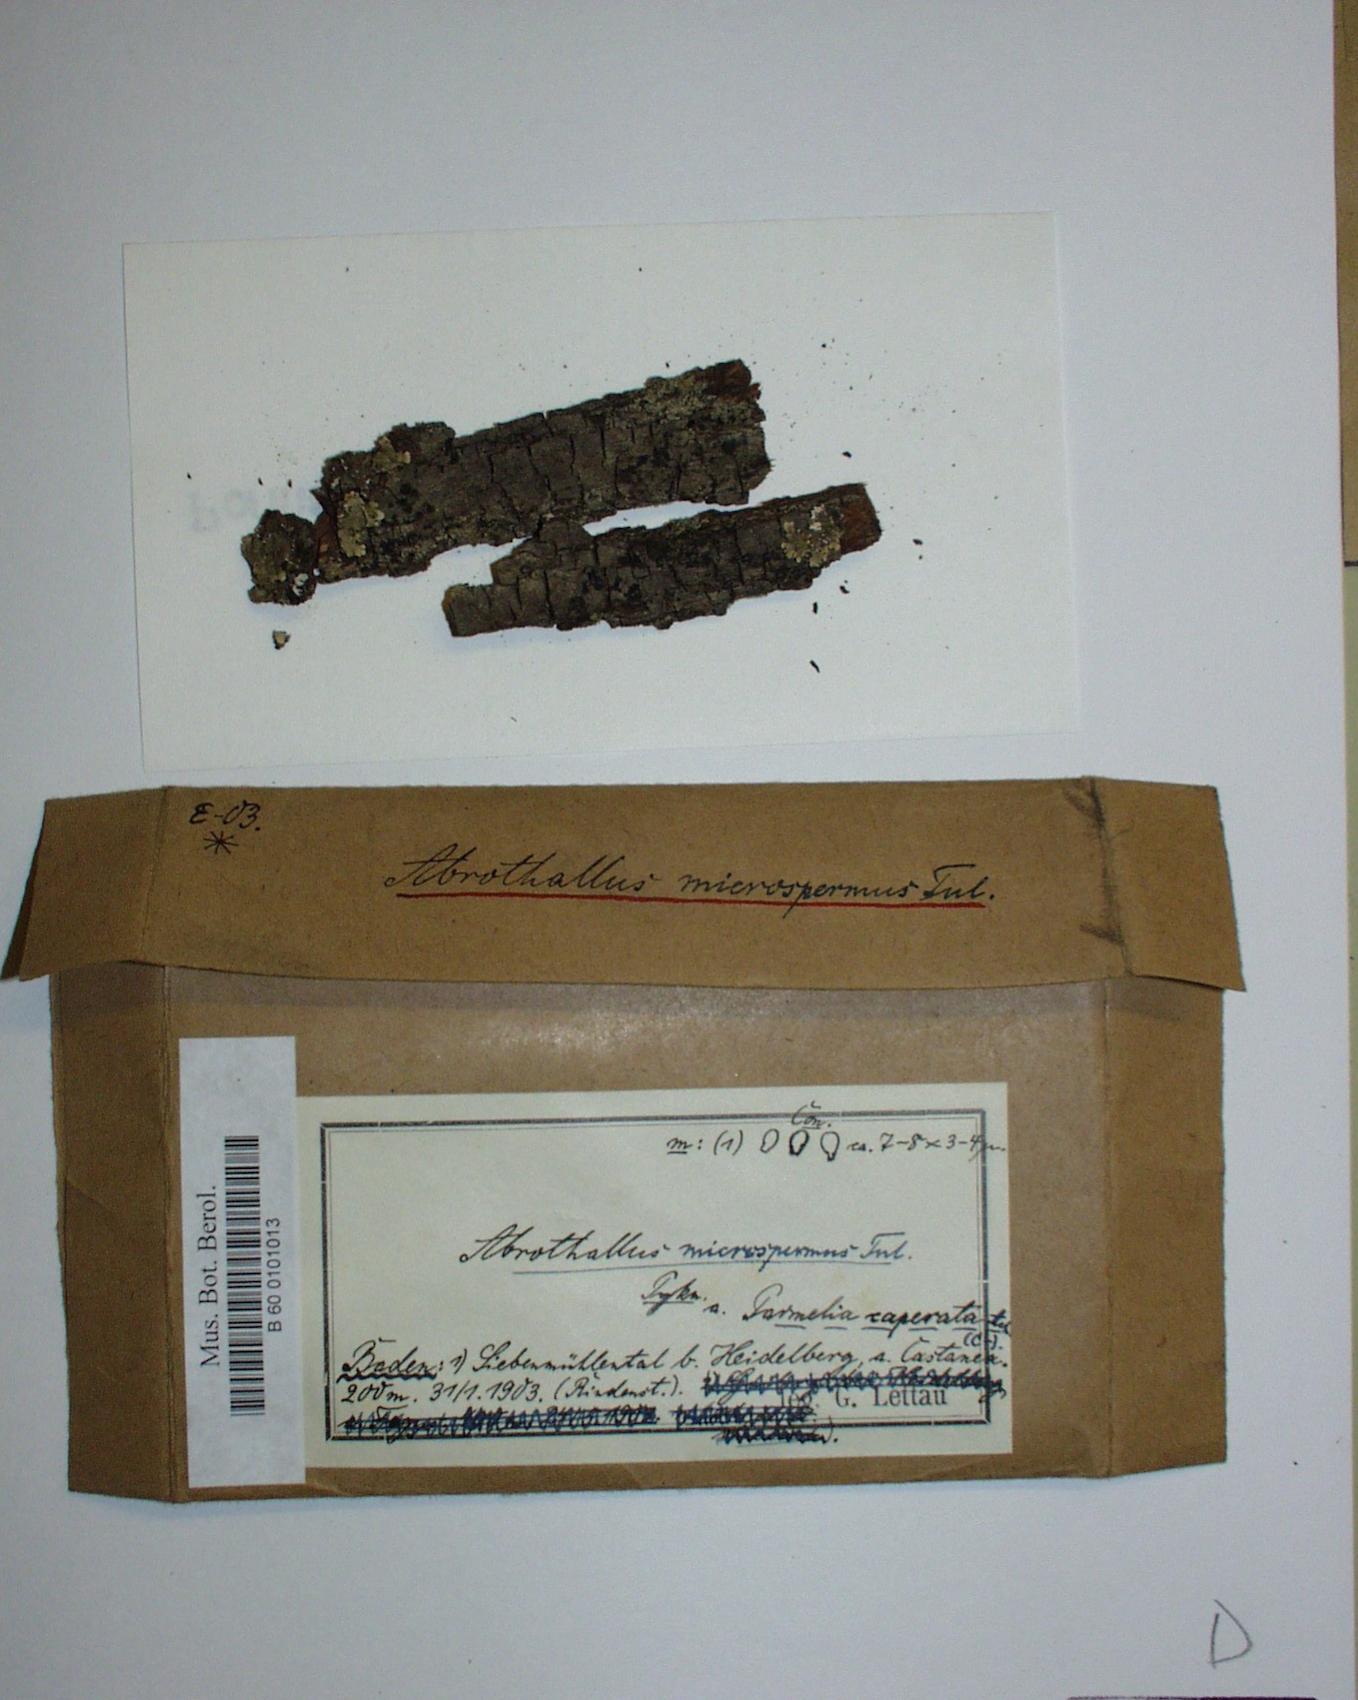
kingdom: Fungi
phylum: Ascomycota
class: Dothideomycetes
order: Abrothallales
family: Abrothallaceae
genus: Abrothallus
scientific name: Abrothallus microspermus
